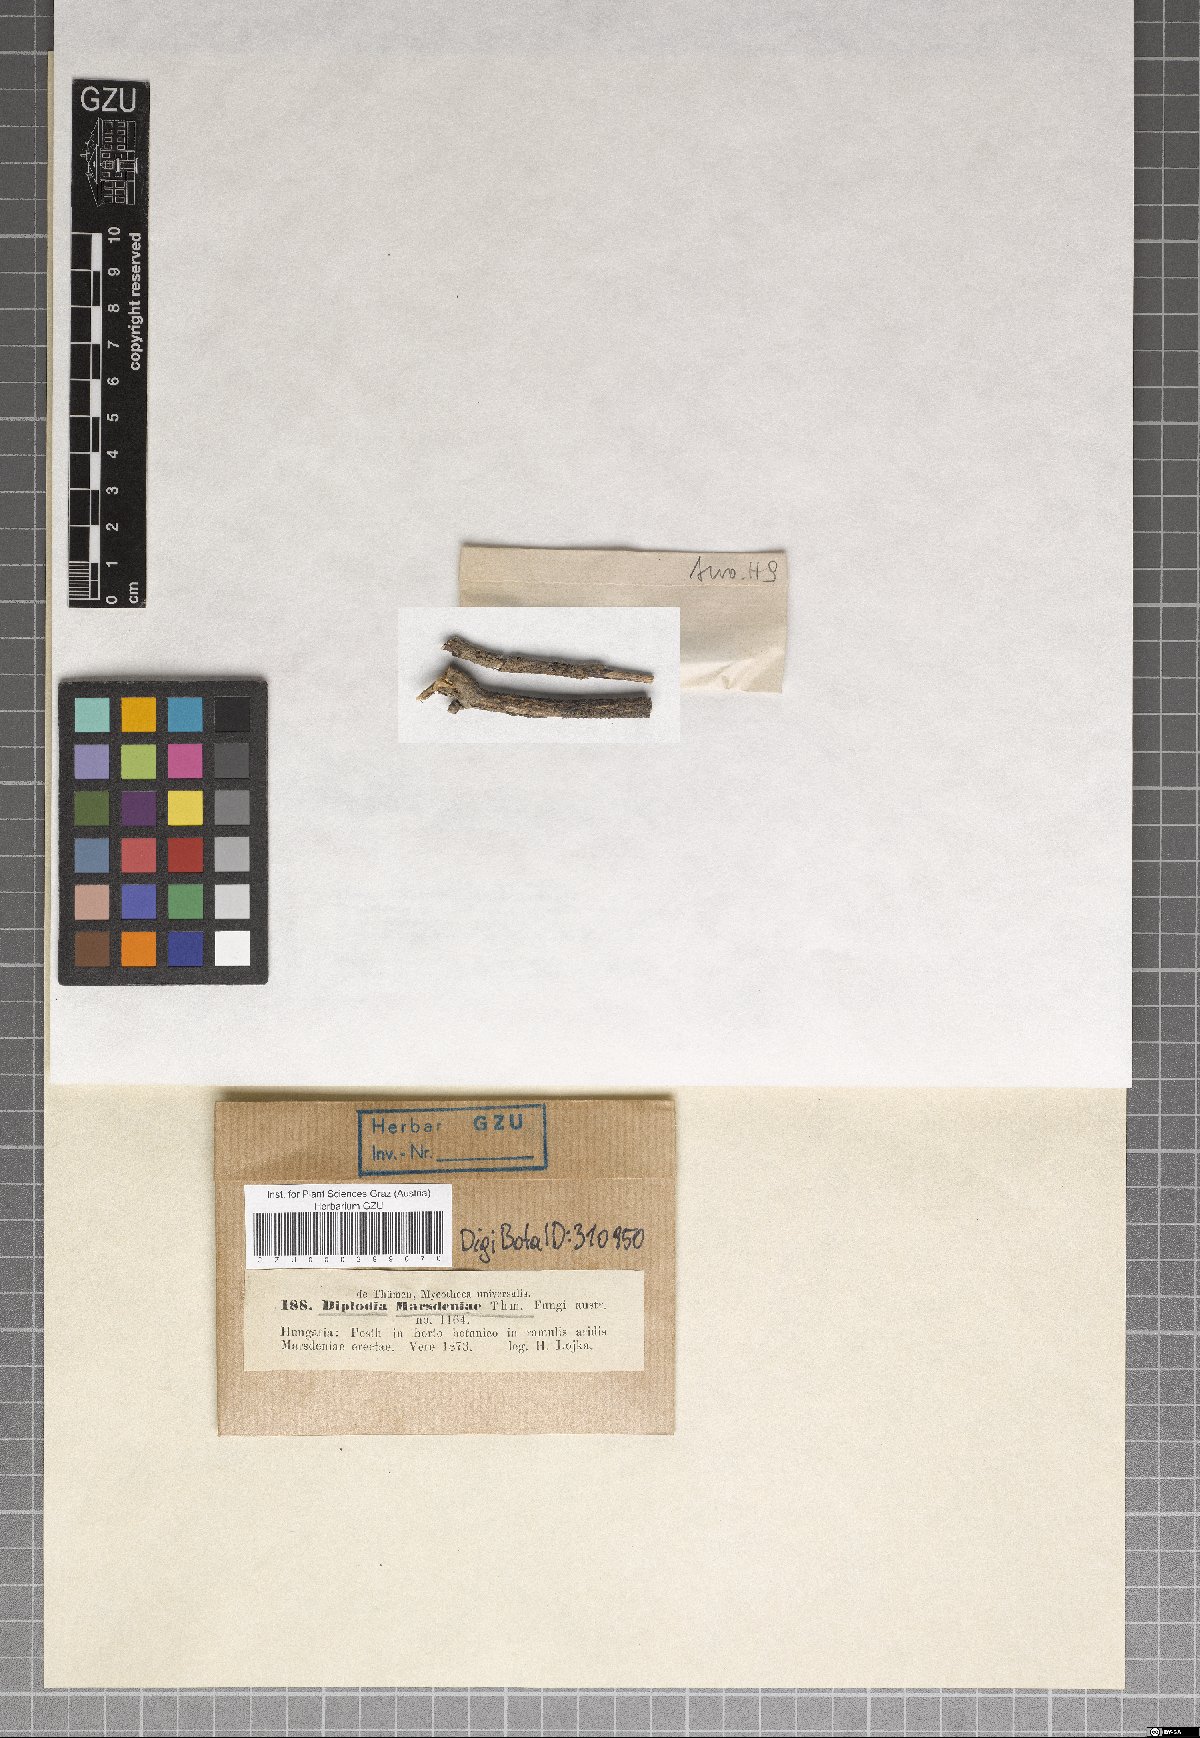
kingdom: Fungi
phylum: Ascomycota
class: Dothideomycetes
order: Botryosphaeriales
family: Botryosphaeriaceae
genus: Diplodia
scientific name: Diplodia
